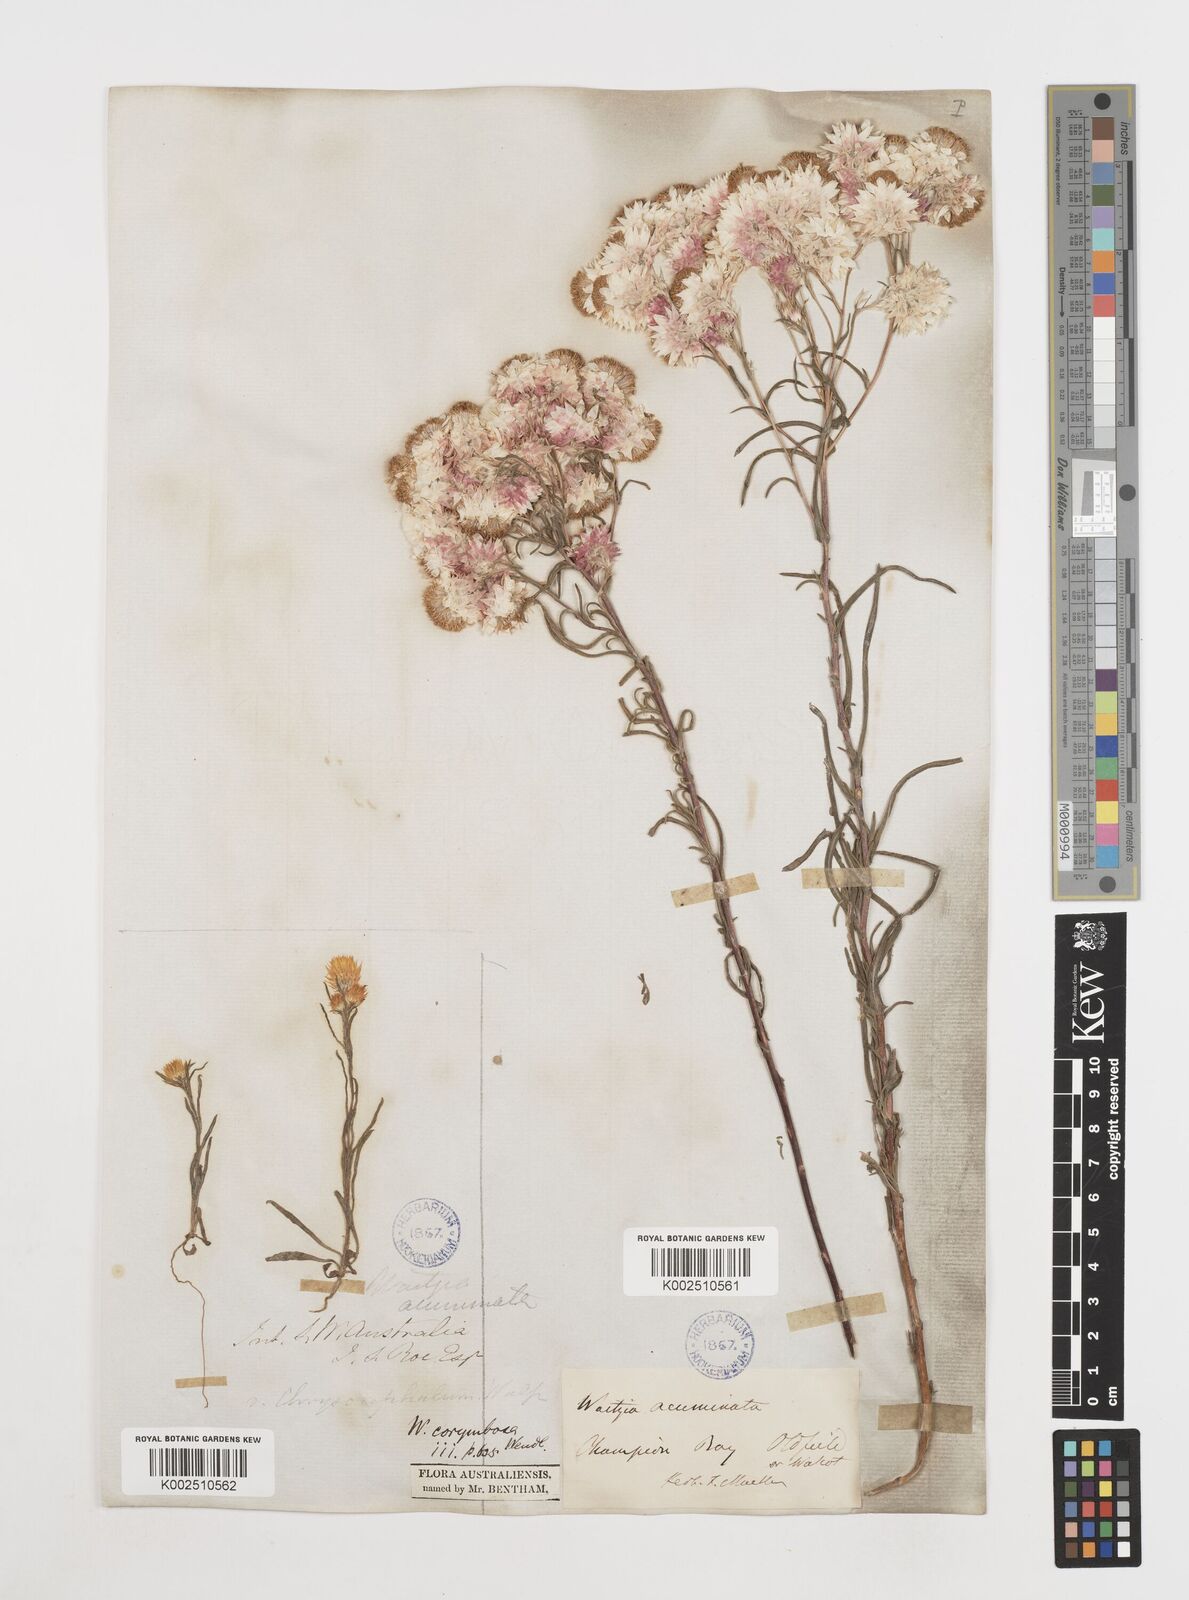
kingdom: Plantae
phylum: Tracheophyta
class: Magnoliopsida
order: Asterales
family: Asteraceae
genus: Waitzia
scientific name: Waitzia acuminata
